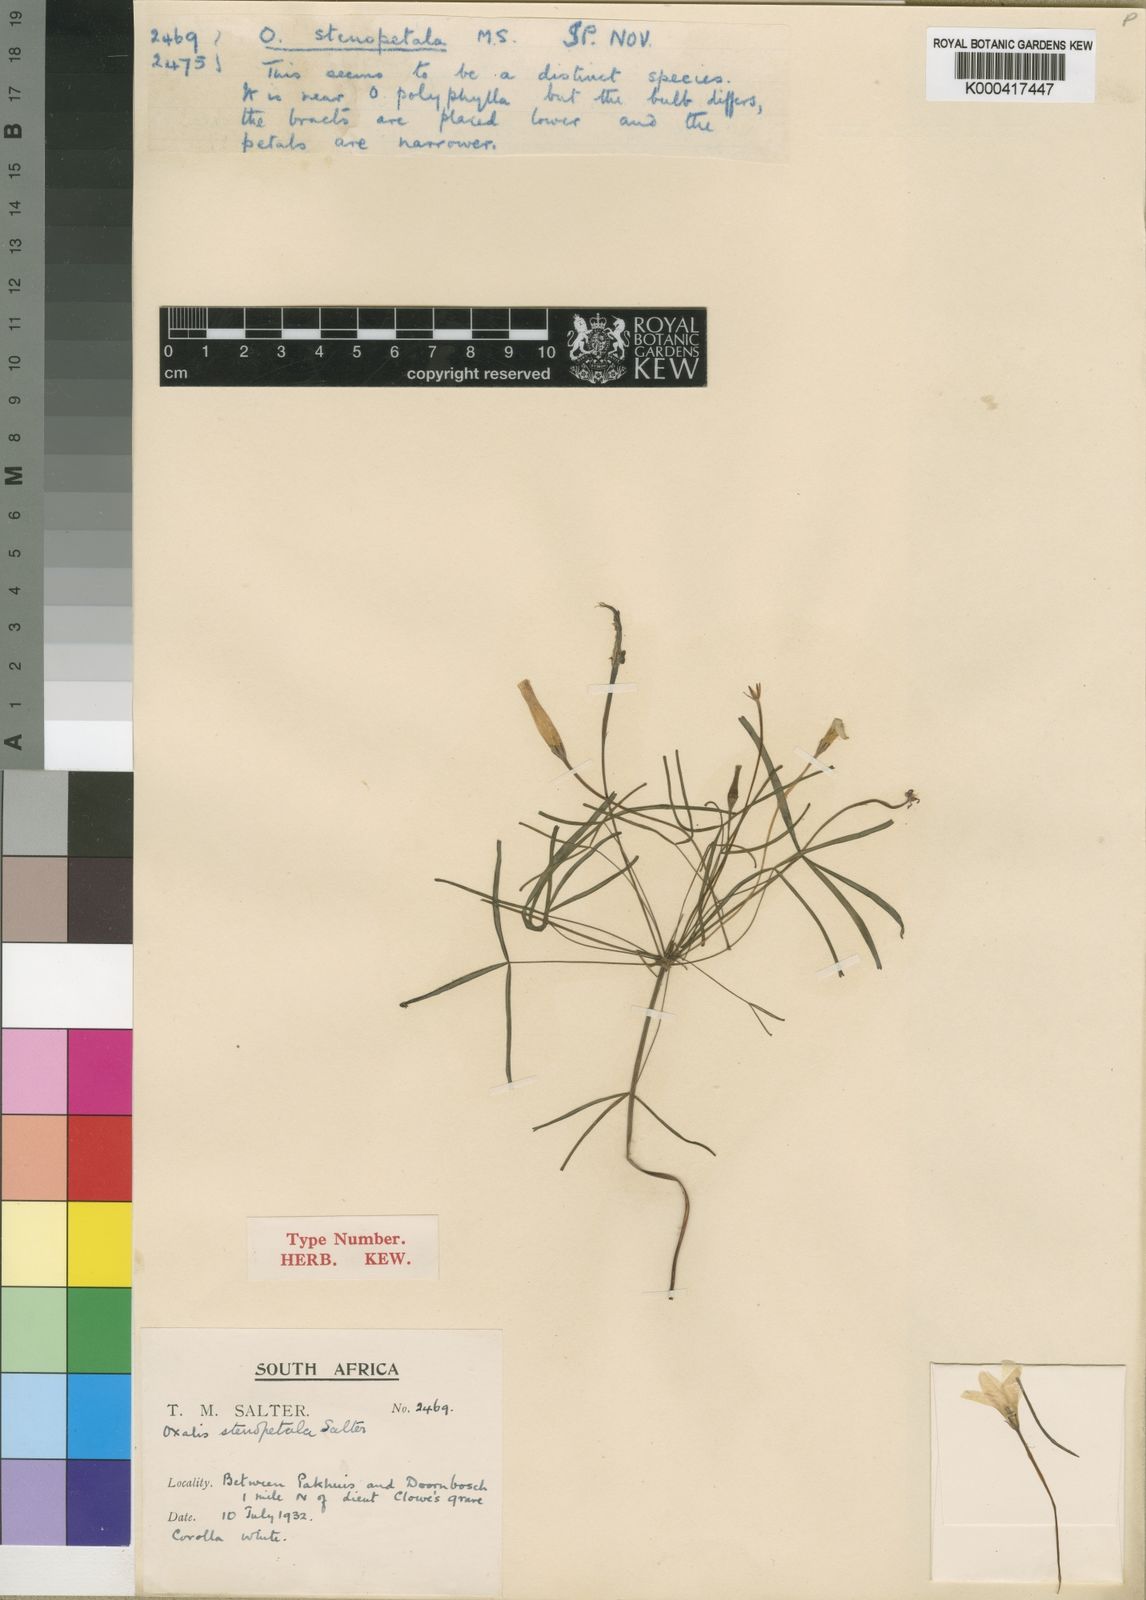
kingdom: Plantae
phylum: Tracheophyta
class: Magnoliopsida
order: Oxalidales
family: Oxalidaceae
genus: Oxalis
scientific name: Oxalis stenopetala
